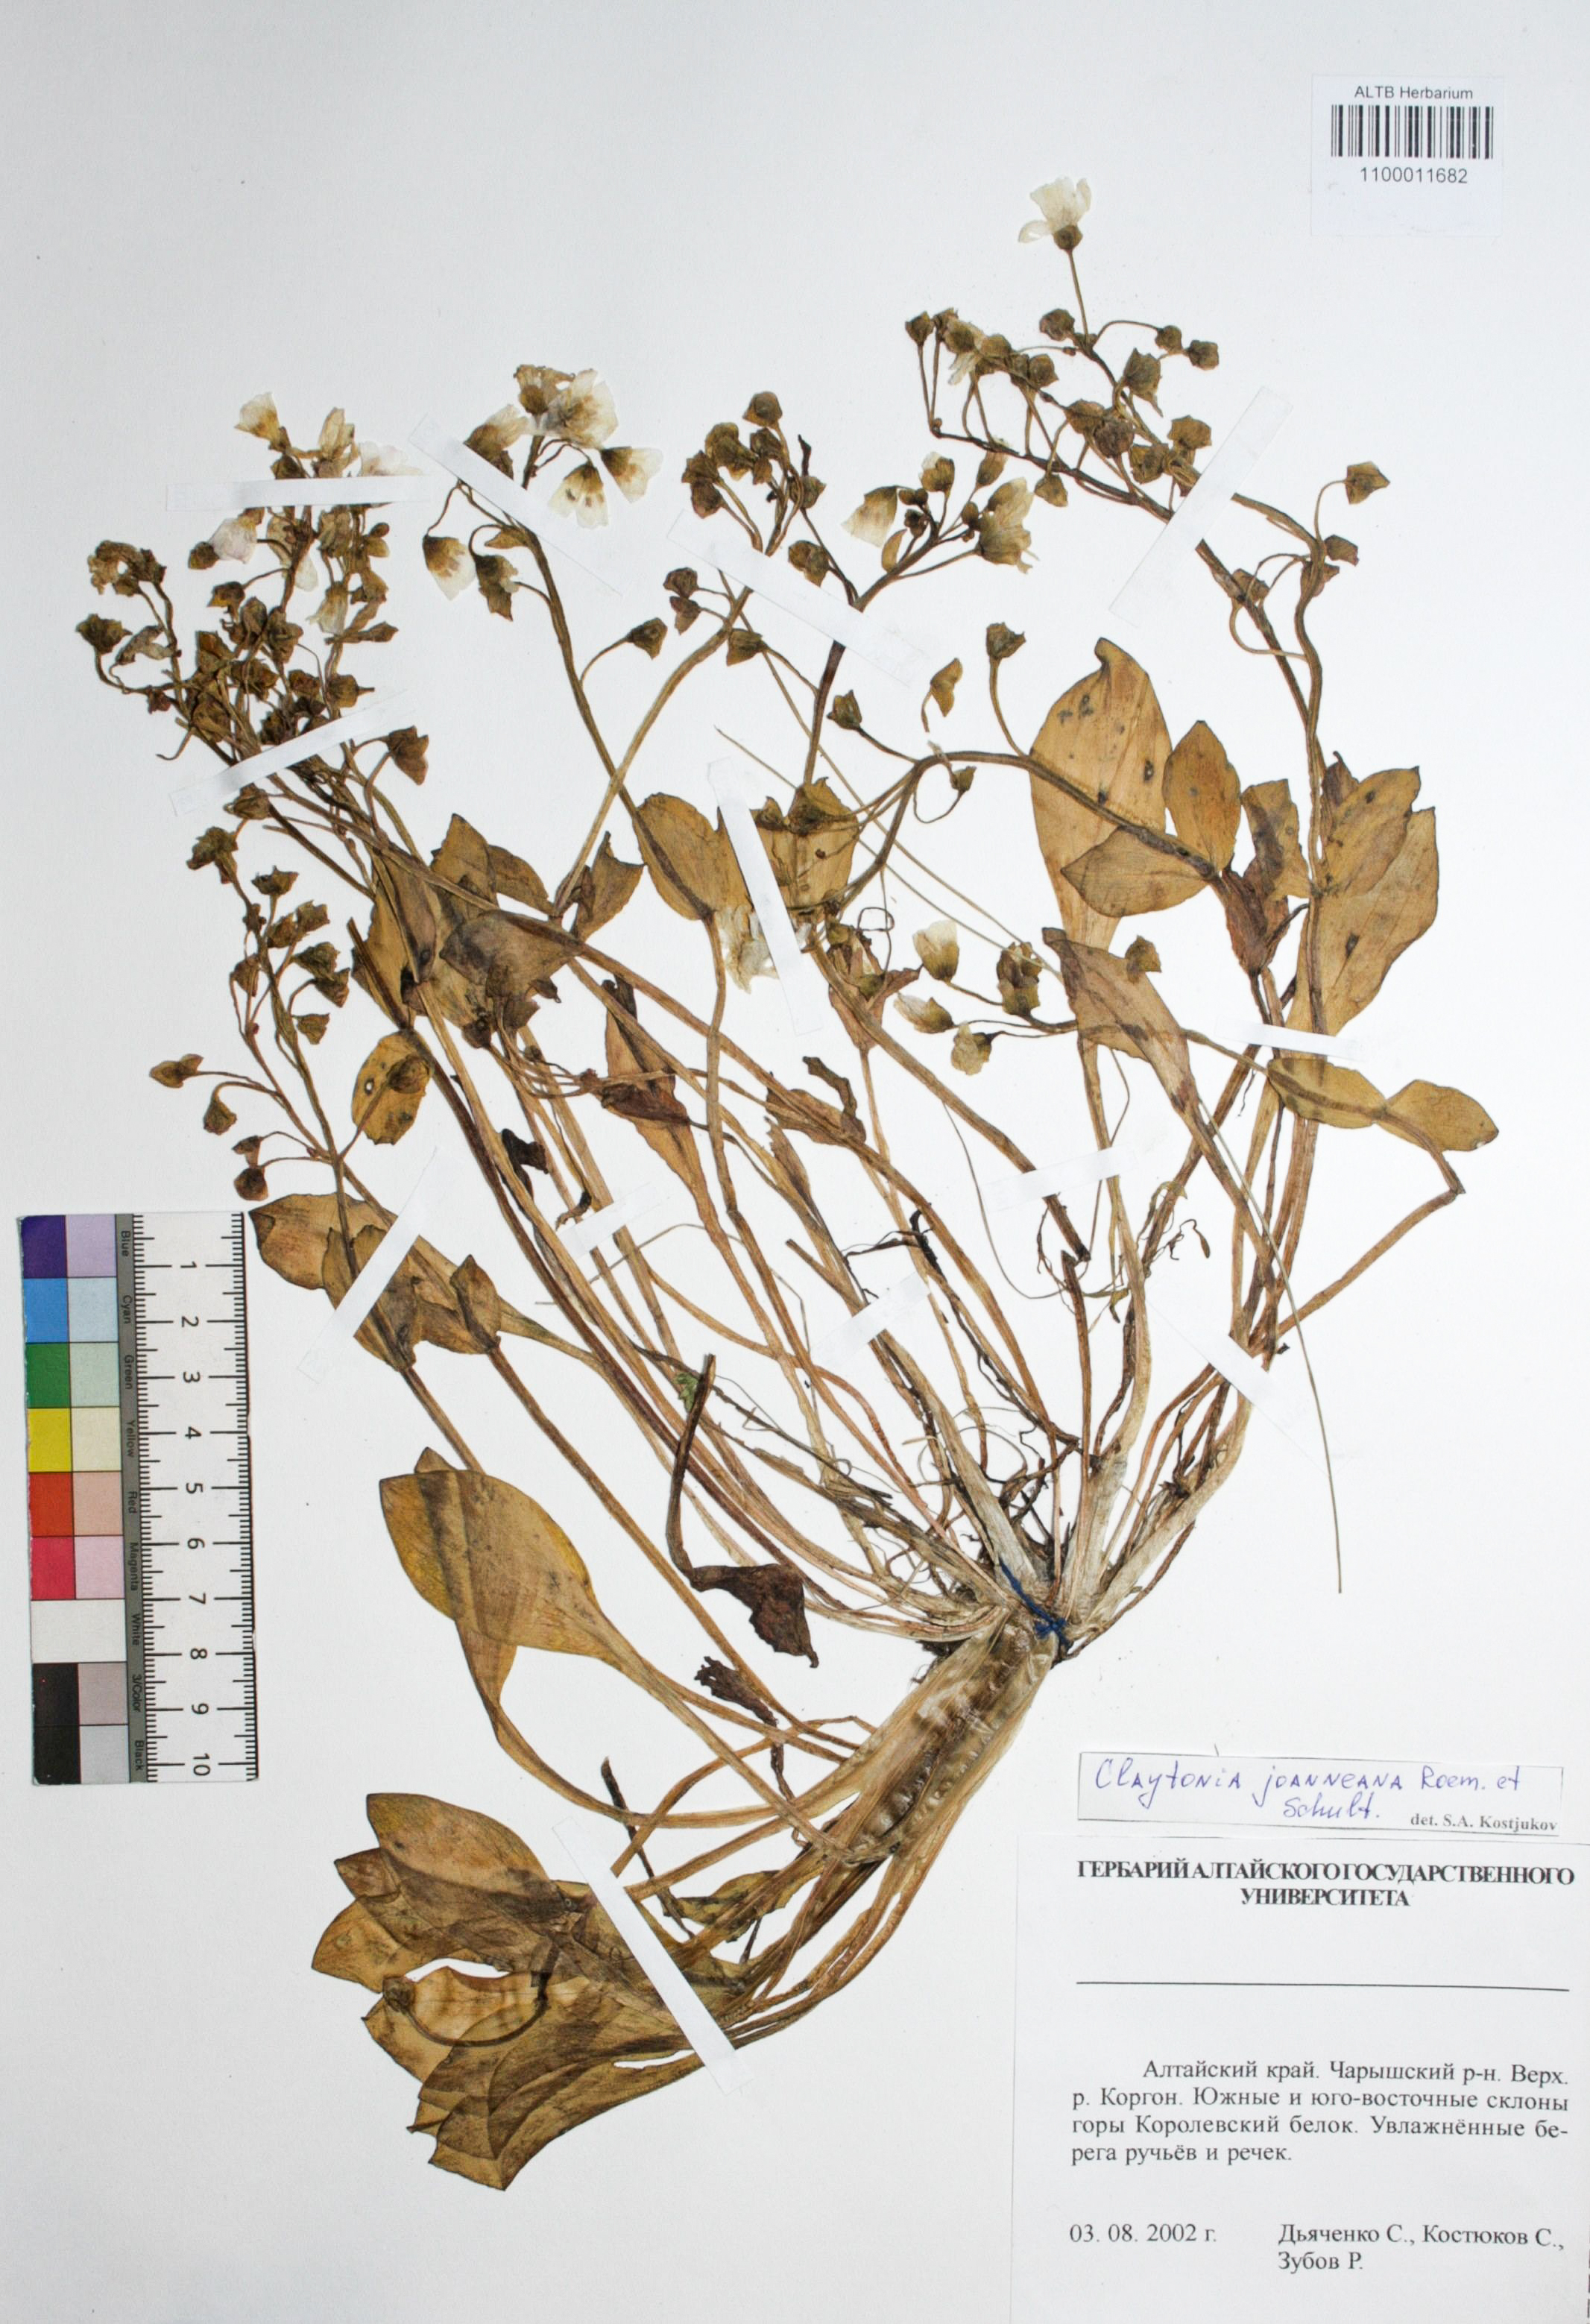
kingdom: Plantae
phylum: Tracheophyta
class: Magnoliopsida
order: Caryophyllales
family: Montiaceae
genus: Claytonia
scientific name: Claytonia joanneana
